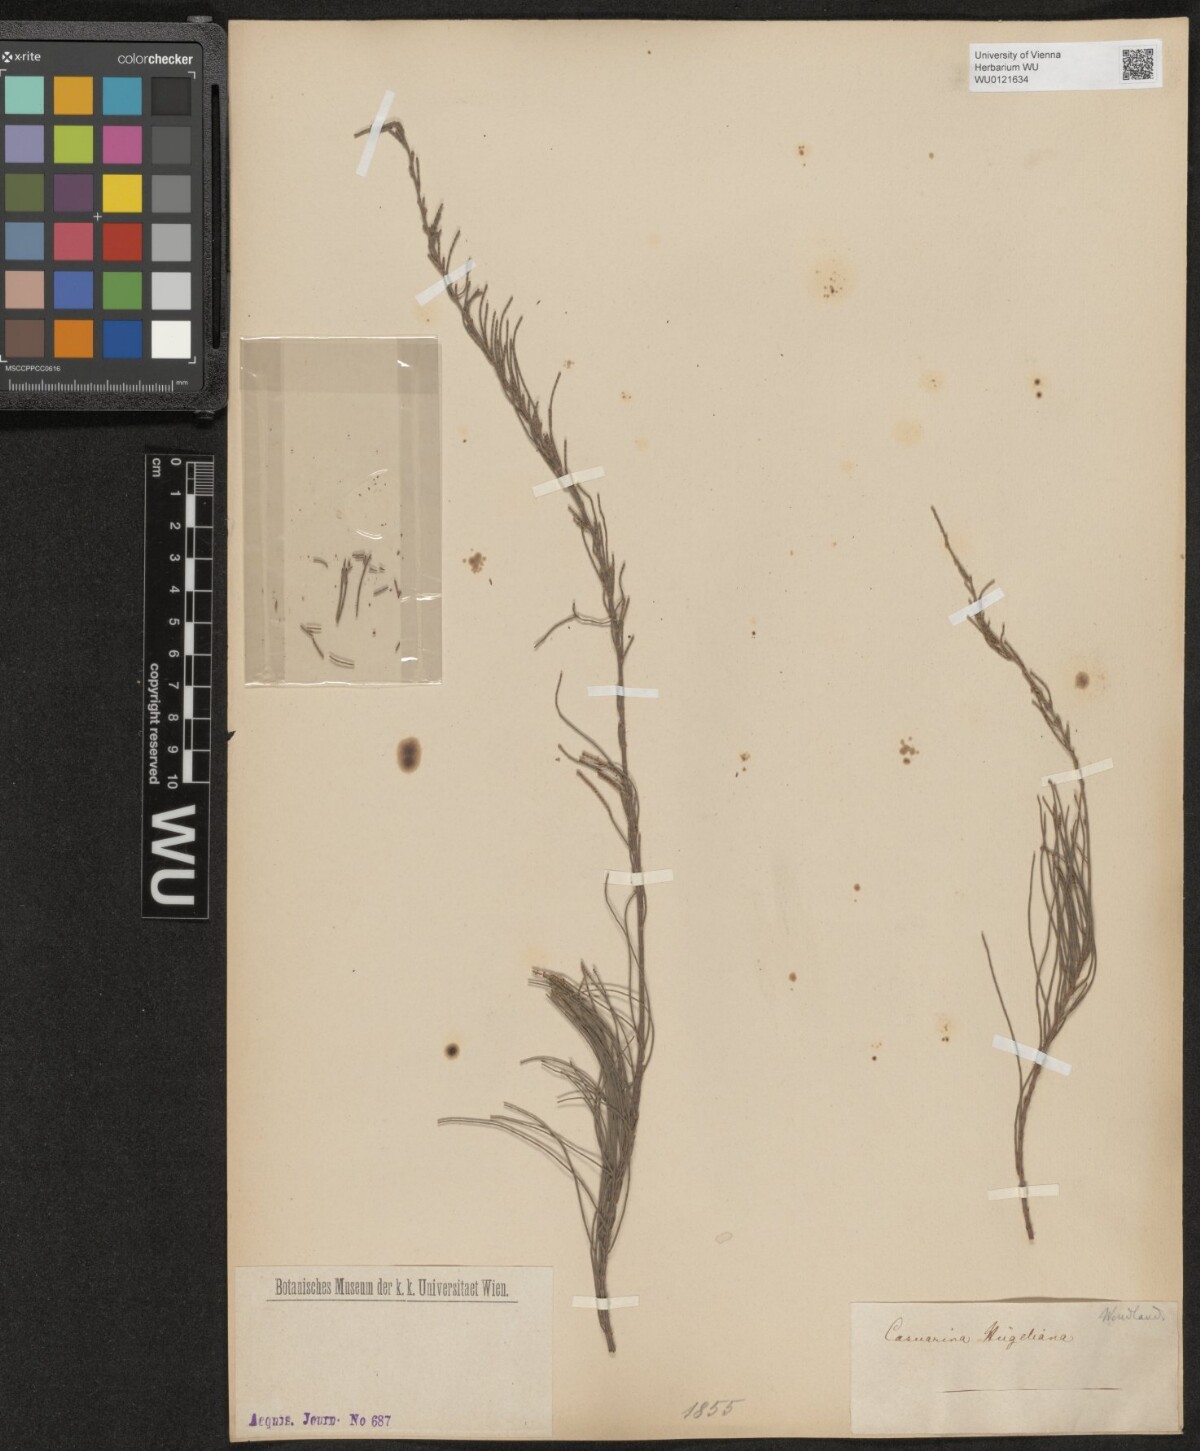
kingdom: Plantae
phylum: Tracheophyta
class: Magnoliopsida
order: Fagales
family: Casuarinaceae
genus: Allocasuarina
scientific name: Allocasuarina huegeliana
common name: Rock she-oak
